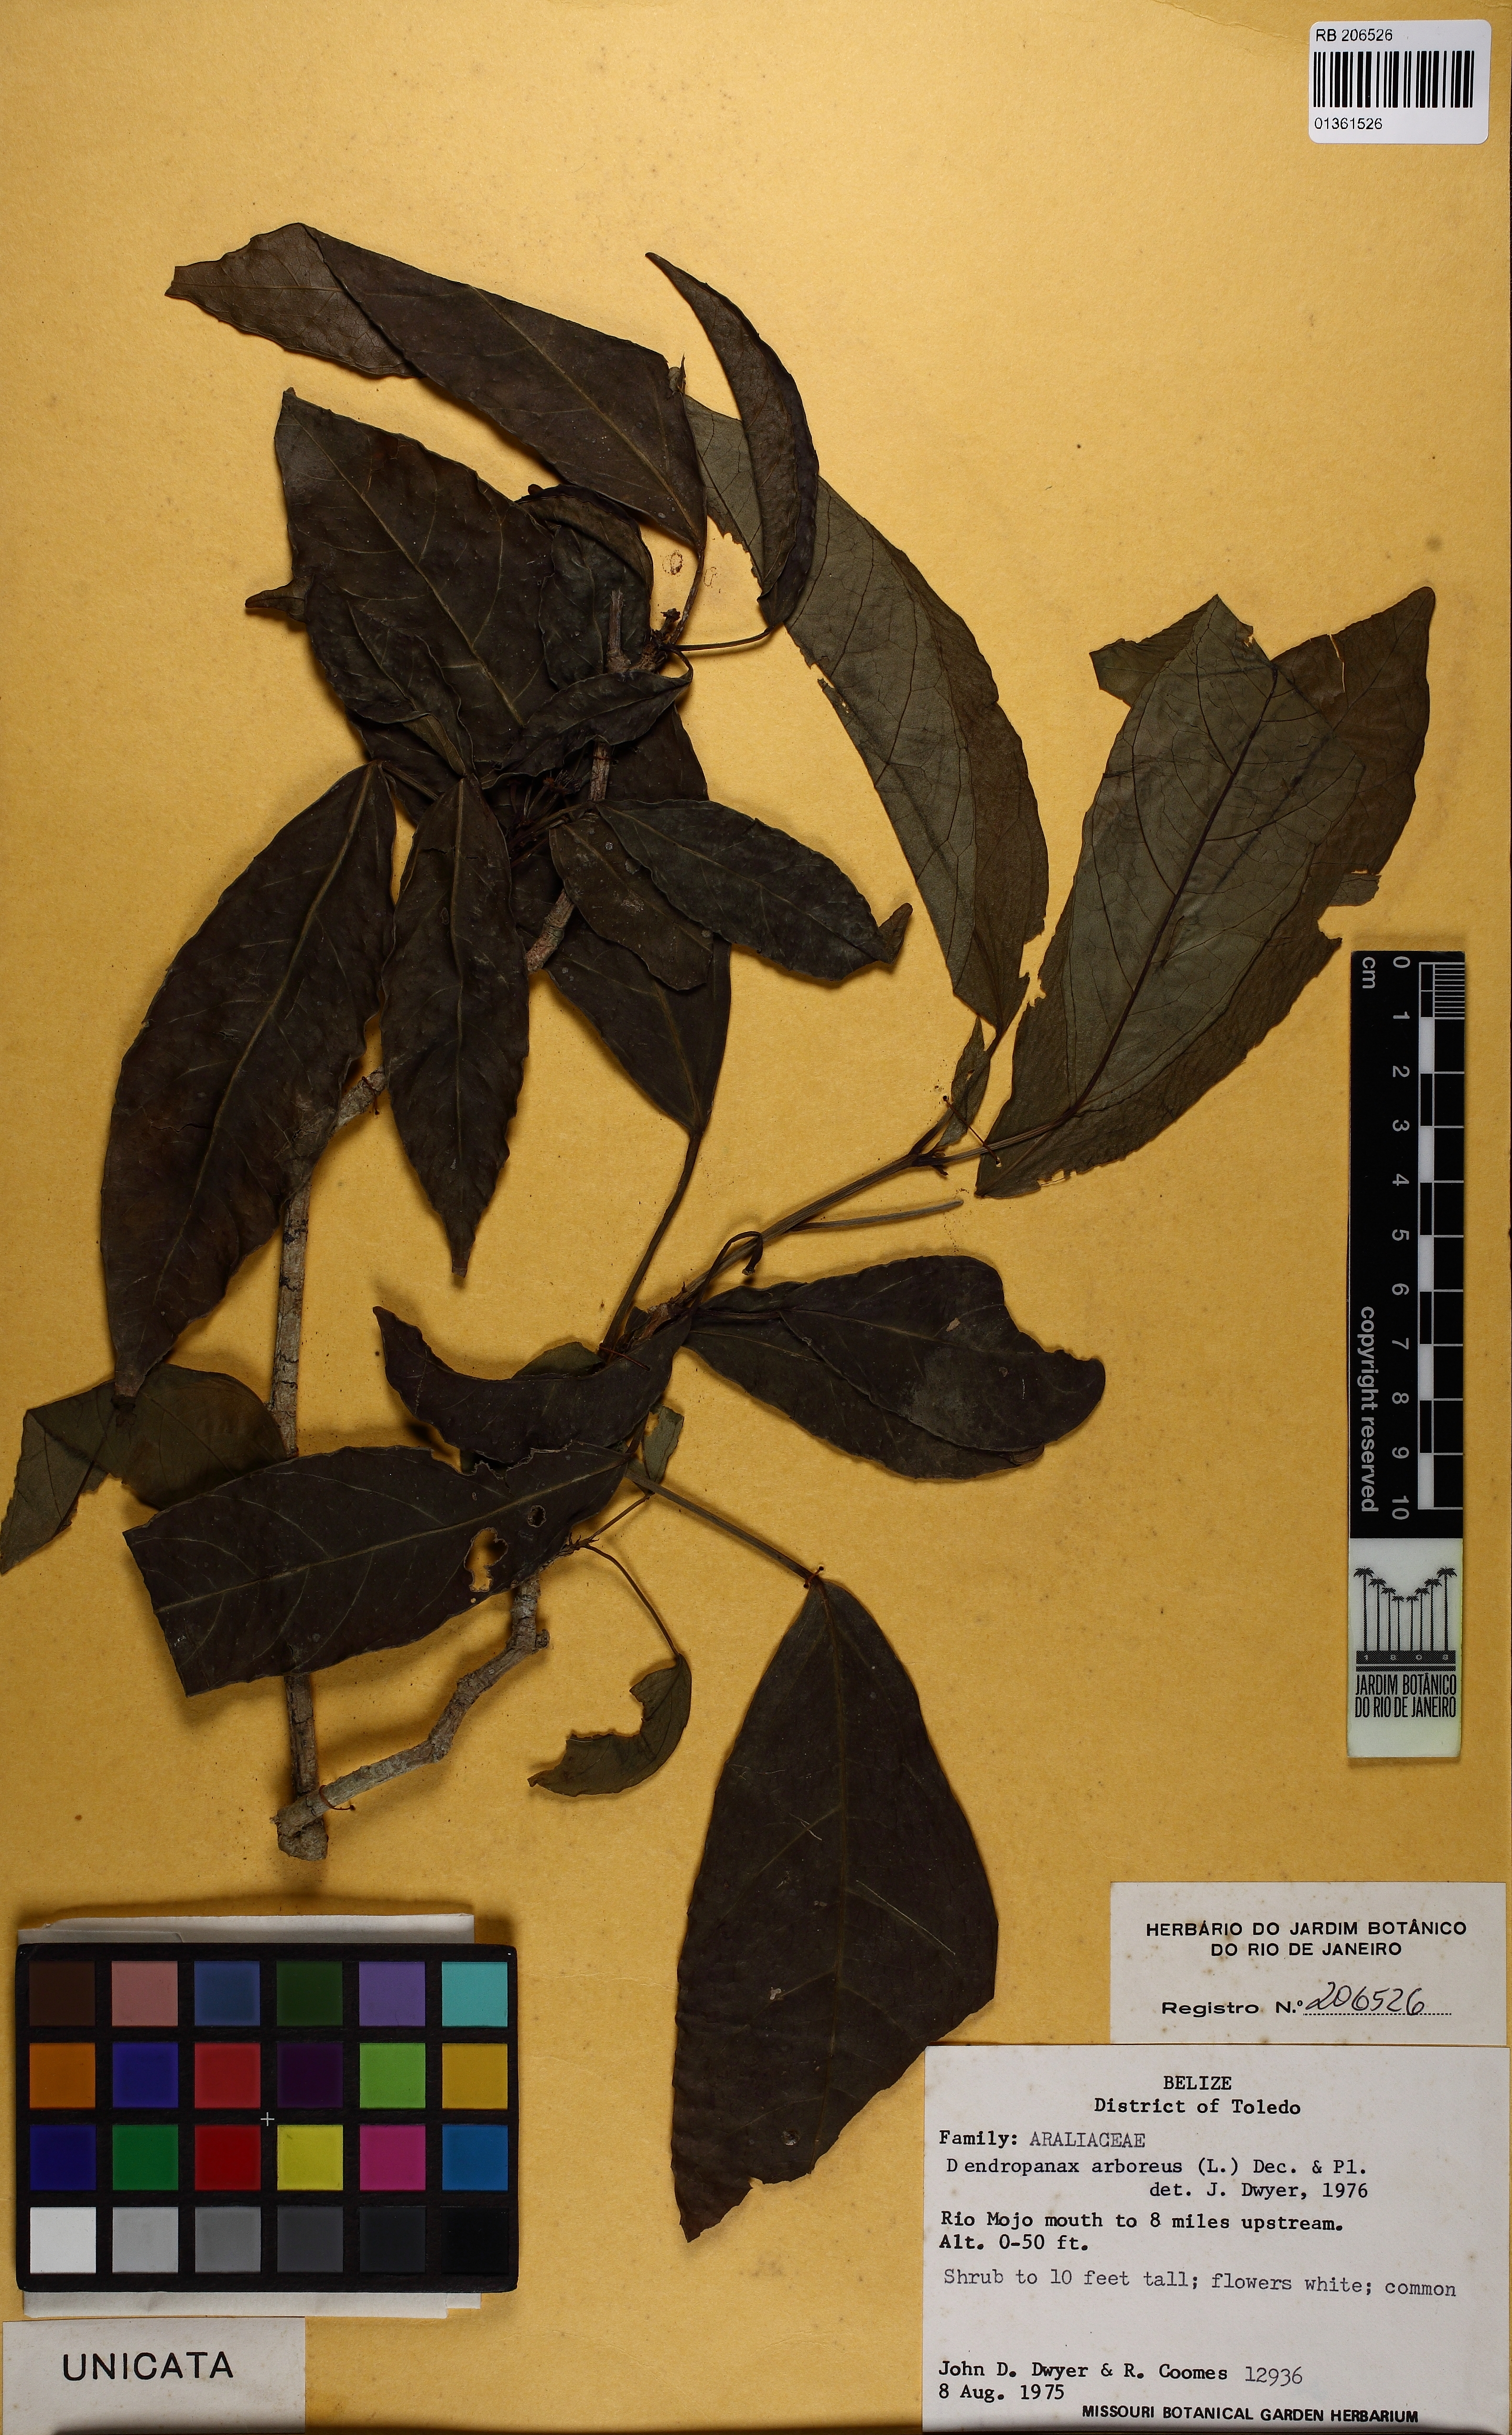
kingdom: Plantae
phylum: Tracheophyta
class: Magnoliopsida
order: Apiales
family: Araliaceae
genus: Dendropanax
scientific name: Dendropanax arboreus
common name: Potato-wood
